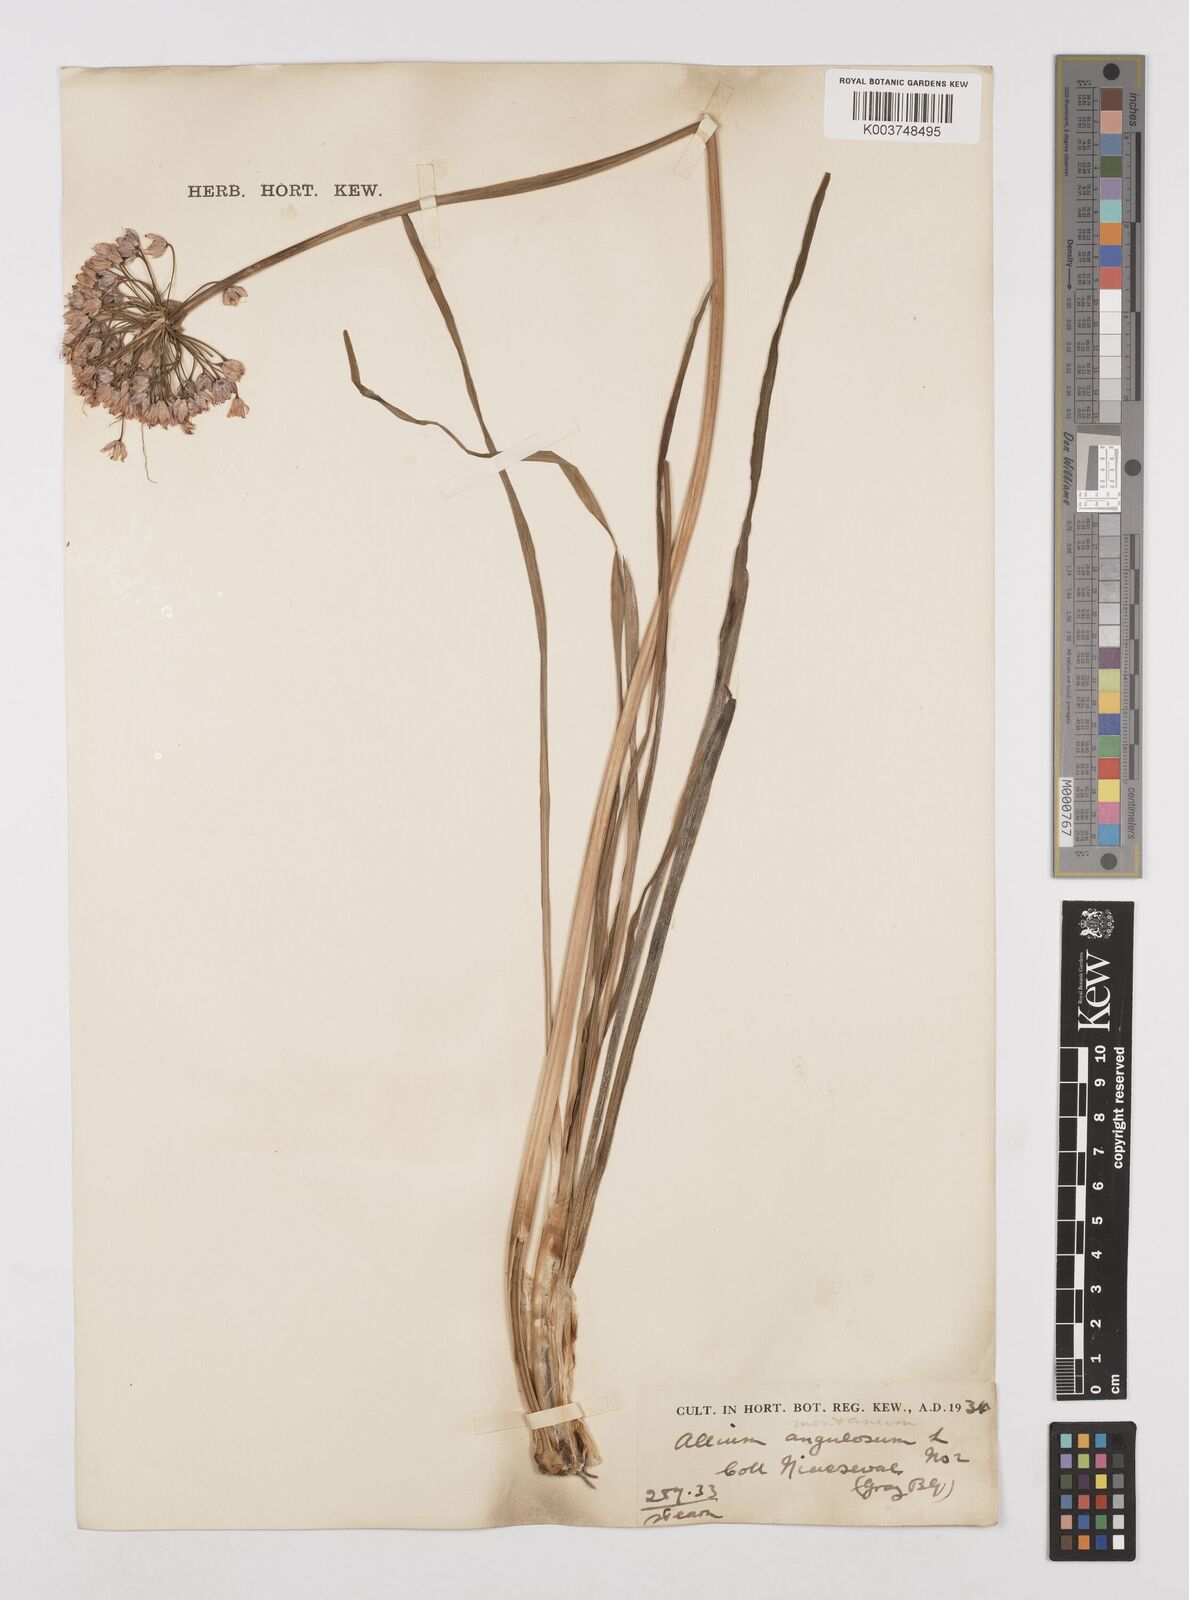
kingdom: Plantae
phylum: Tracheophyta
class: Liliopsida
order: Asparagales
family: Amaryllidaceae
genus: Allium
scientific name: Allium
